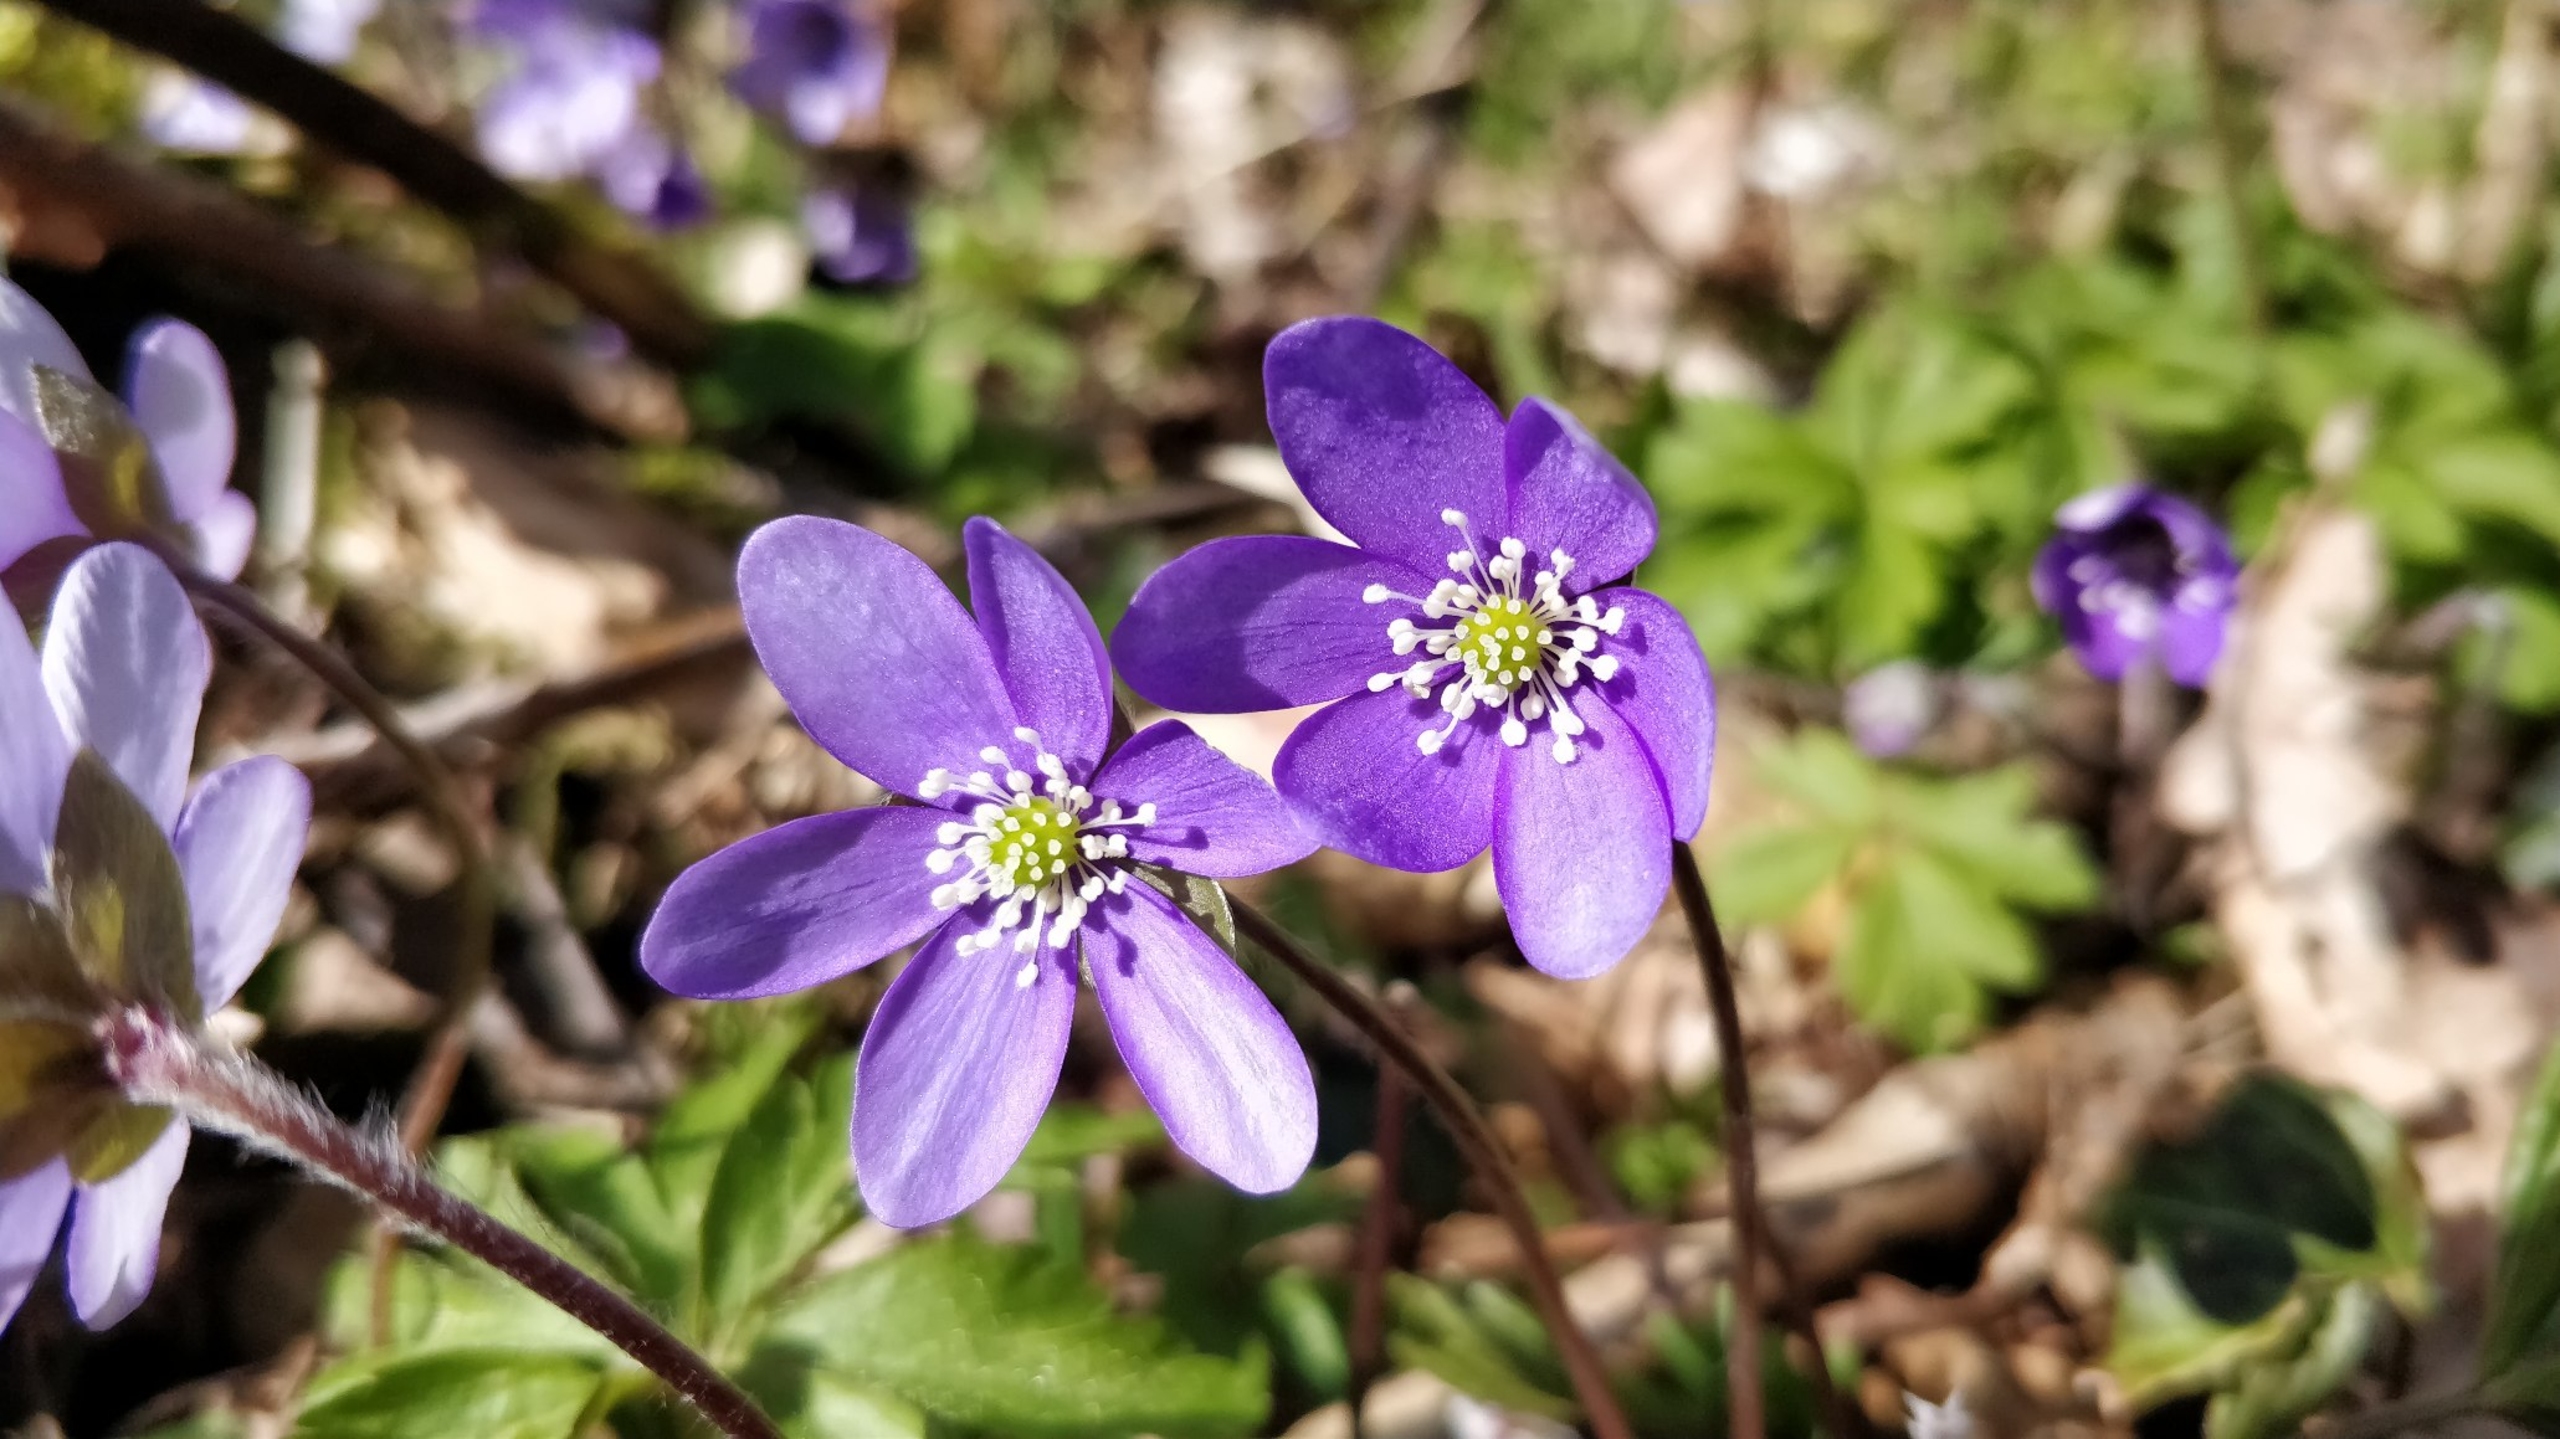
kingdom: Plantae
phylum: Tracheophyta
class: Magnoliopsida
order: Ranunculales
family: Ranunculaceae
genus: Hepatica
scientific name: Hepatica nobilis
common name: Blå anemone
